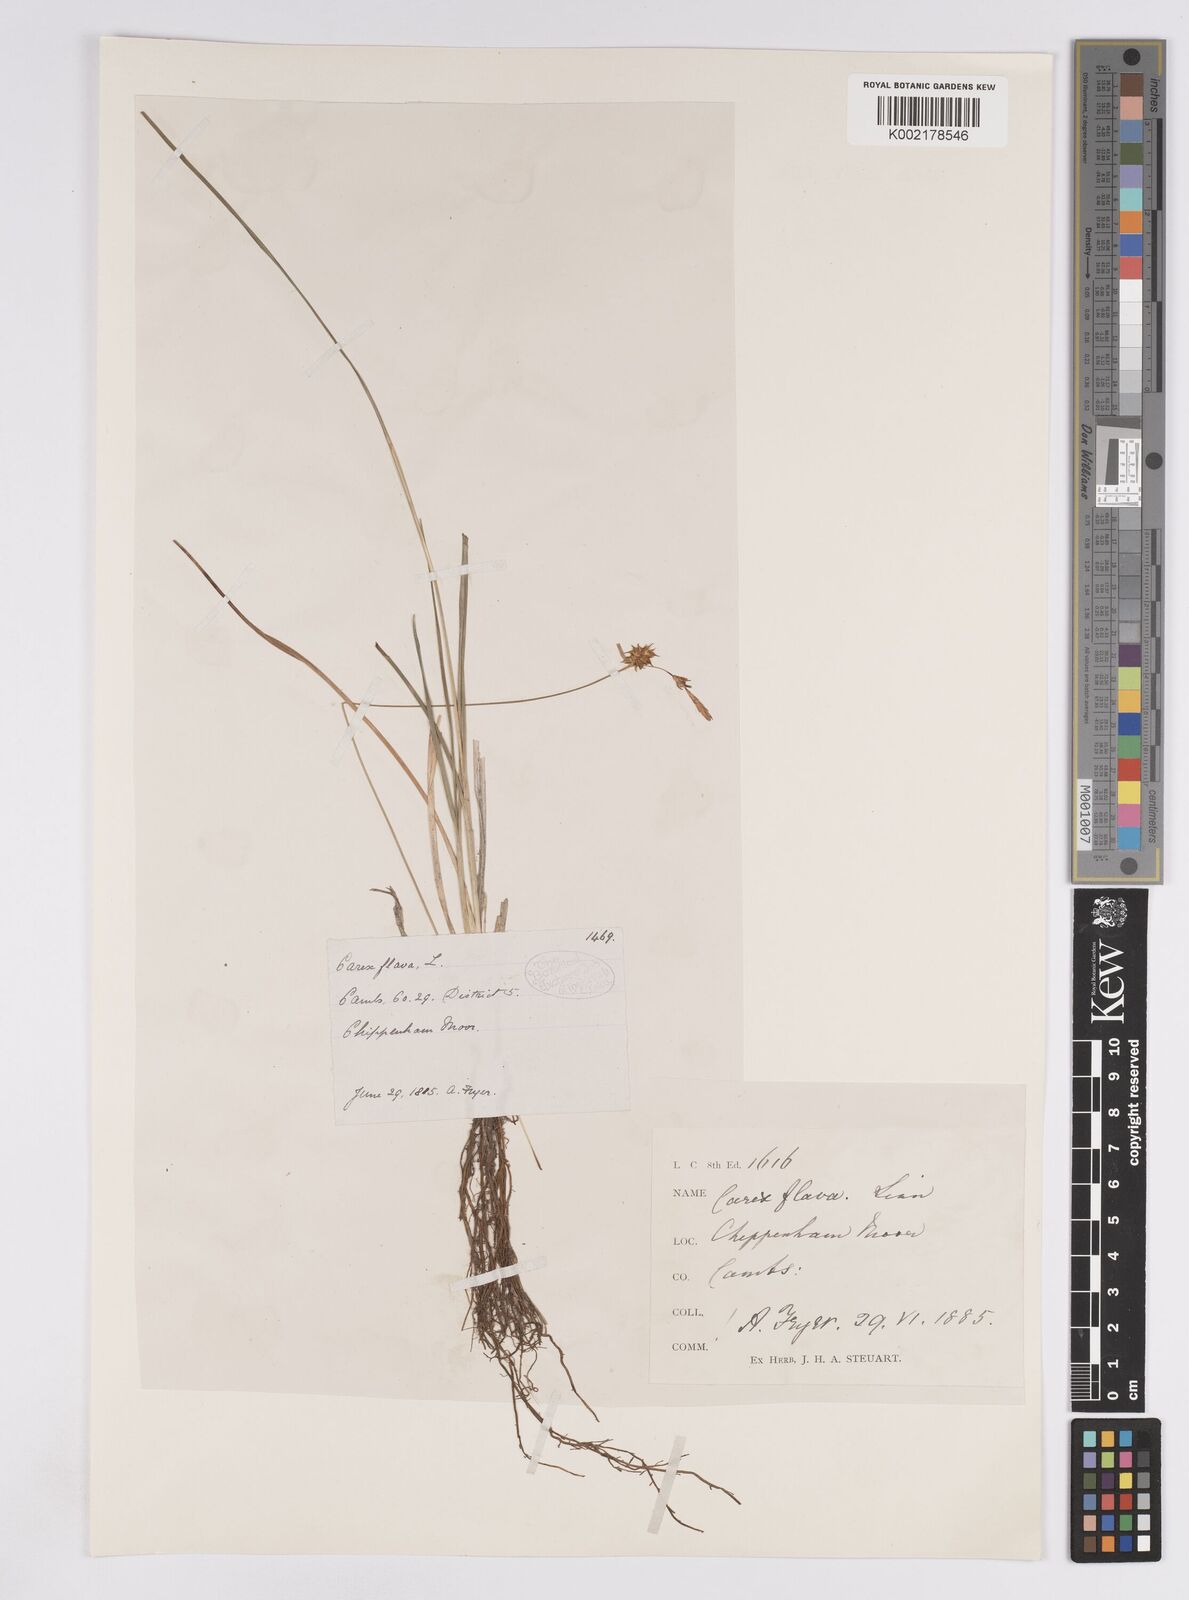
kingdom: Plantae
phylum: Tracheophyta
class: Liliopsida
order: Poales
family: Cyperaceae
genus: Carex
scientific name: Carex lepidocarpa
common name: Long-stalked yellow-sedge
